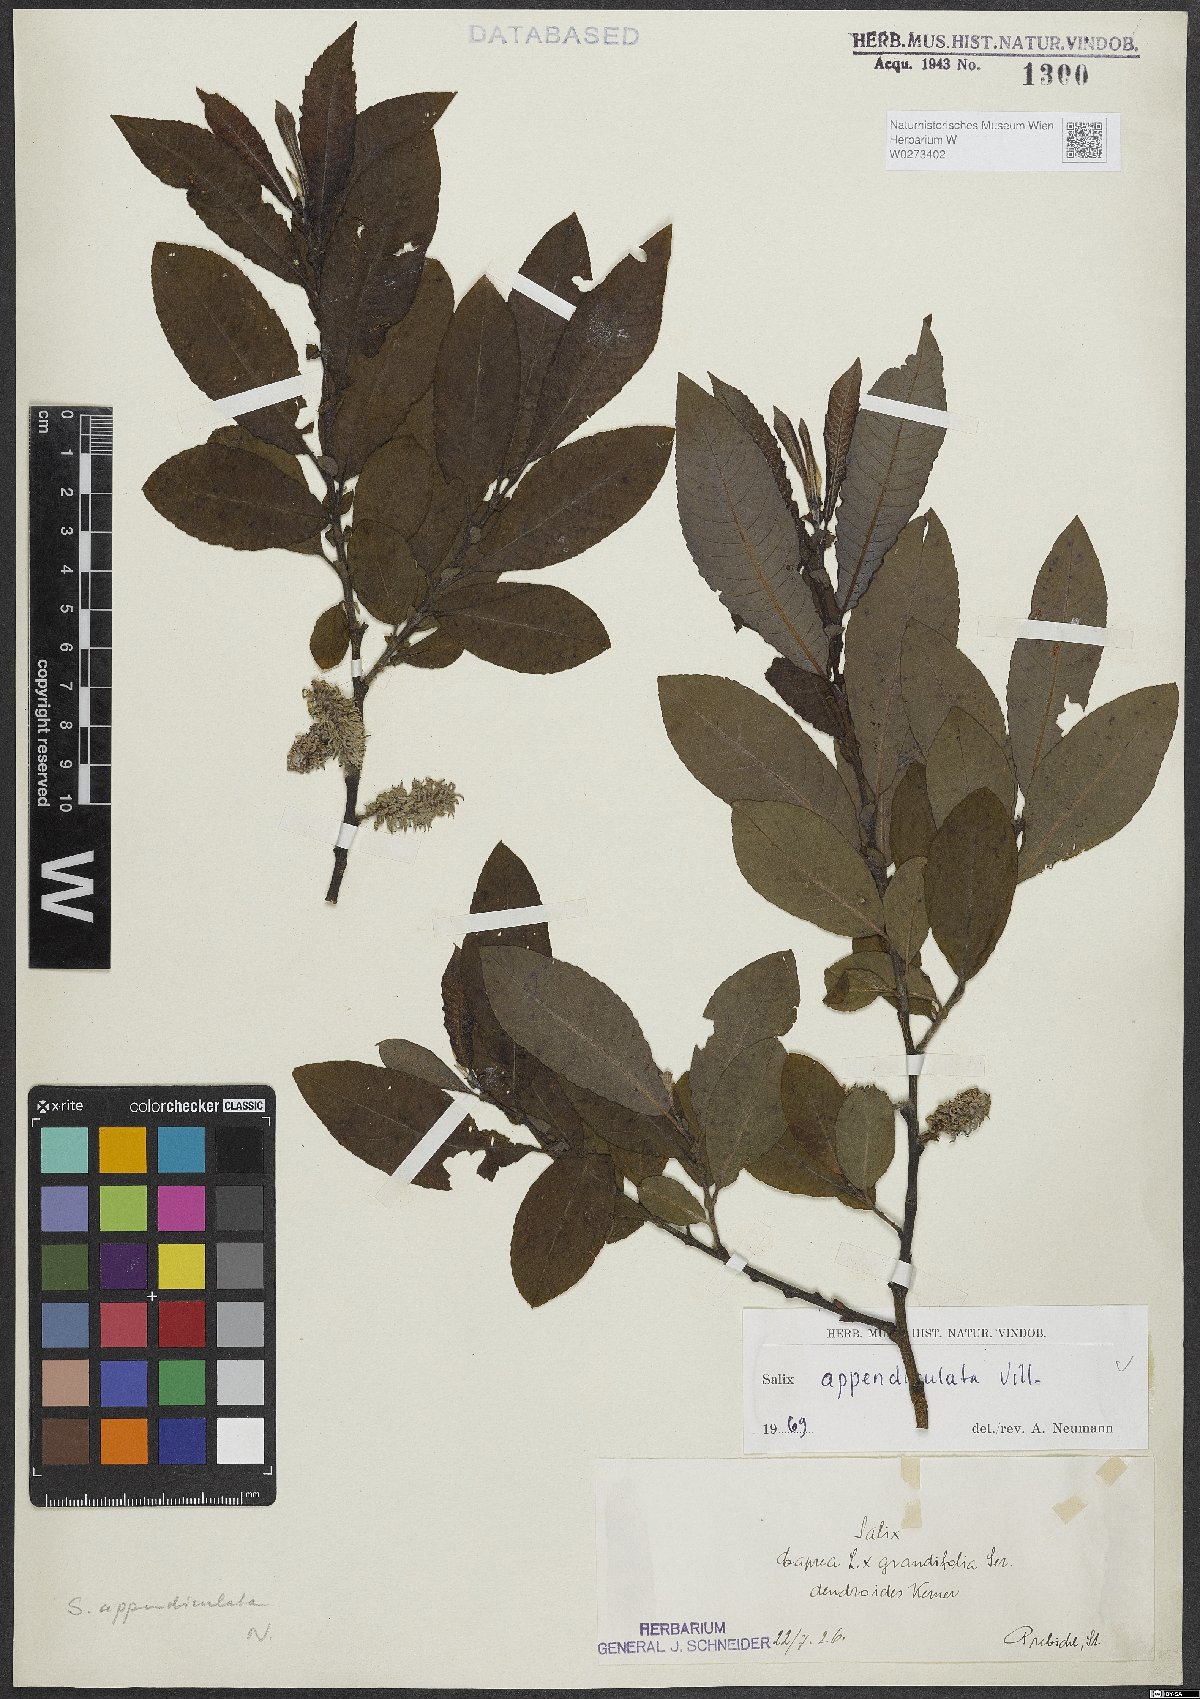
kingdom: Plantae
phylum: Tracheophyta
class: Magnoliopsida
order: Malpighiales
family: Salicaceae
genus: Salix
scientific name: Salix appendiculata
